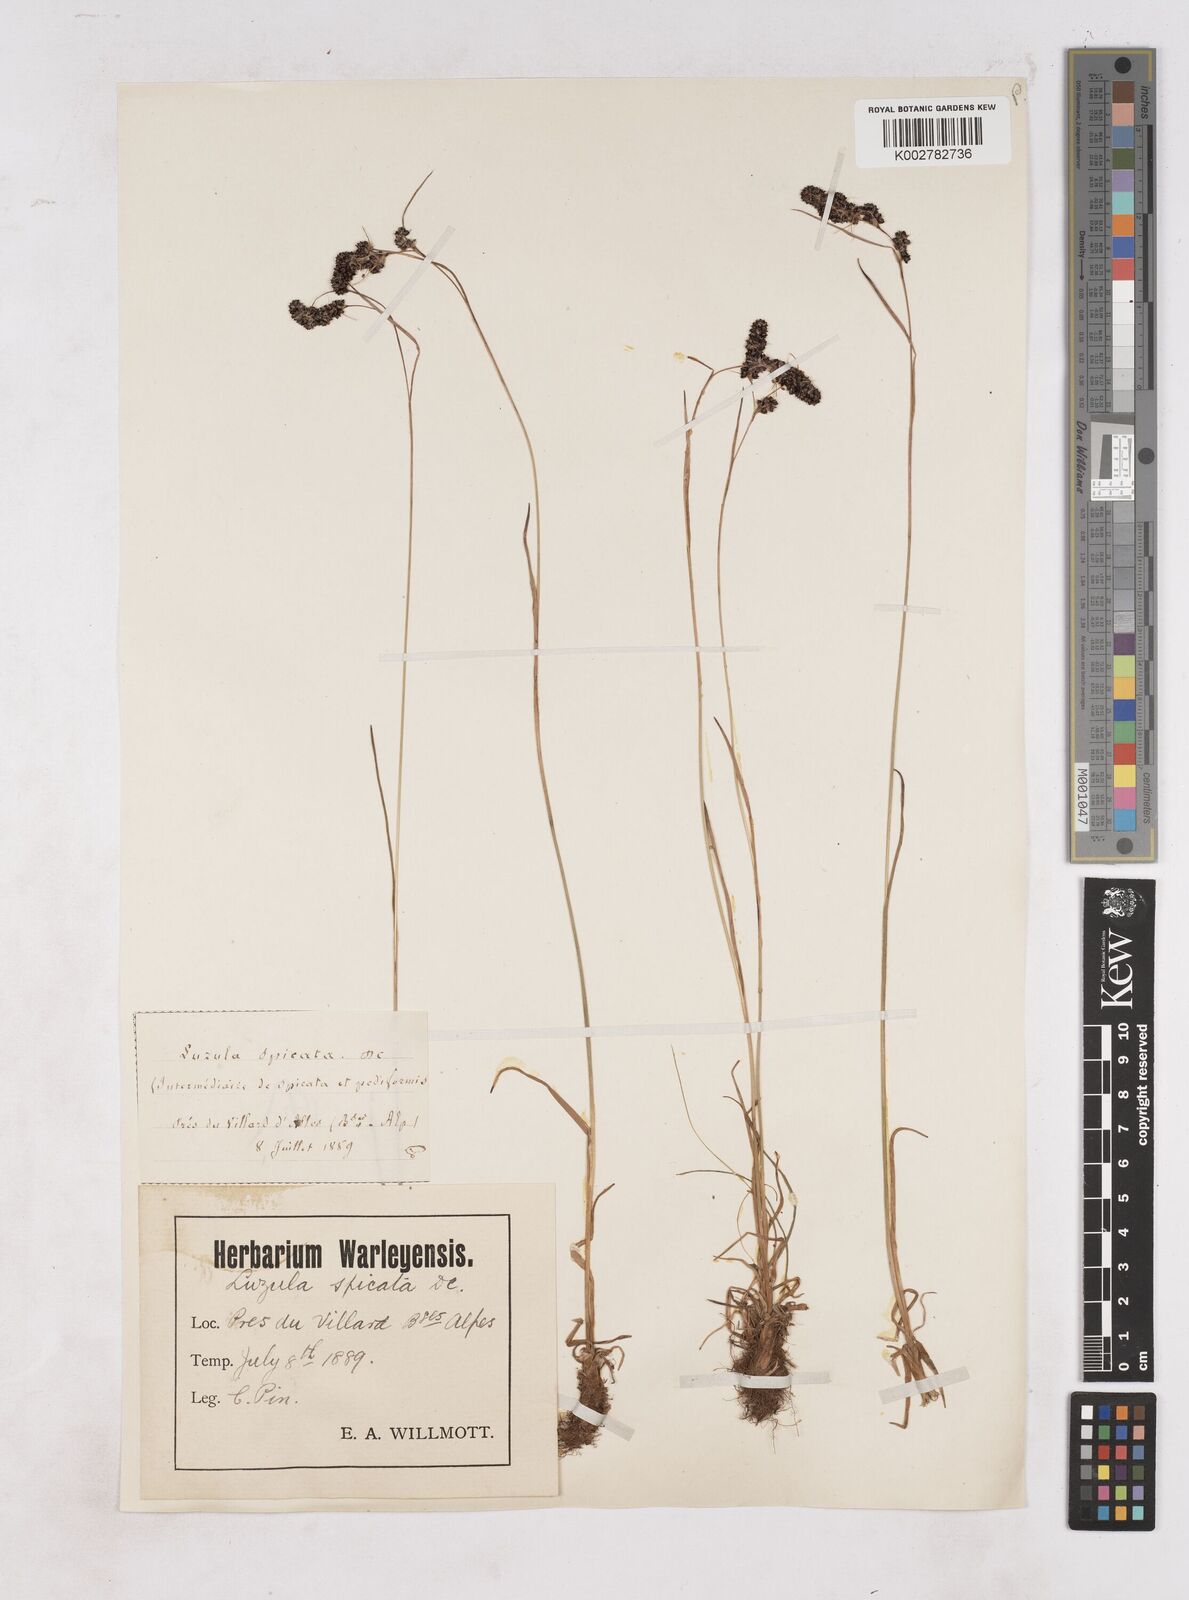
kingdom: Plantae
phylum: Tracheophyta
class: Liliopsida
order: Poales
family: Juncaceae
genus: Luzula
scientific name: Luzula spicata
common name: Spiked wood-rush
